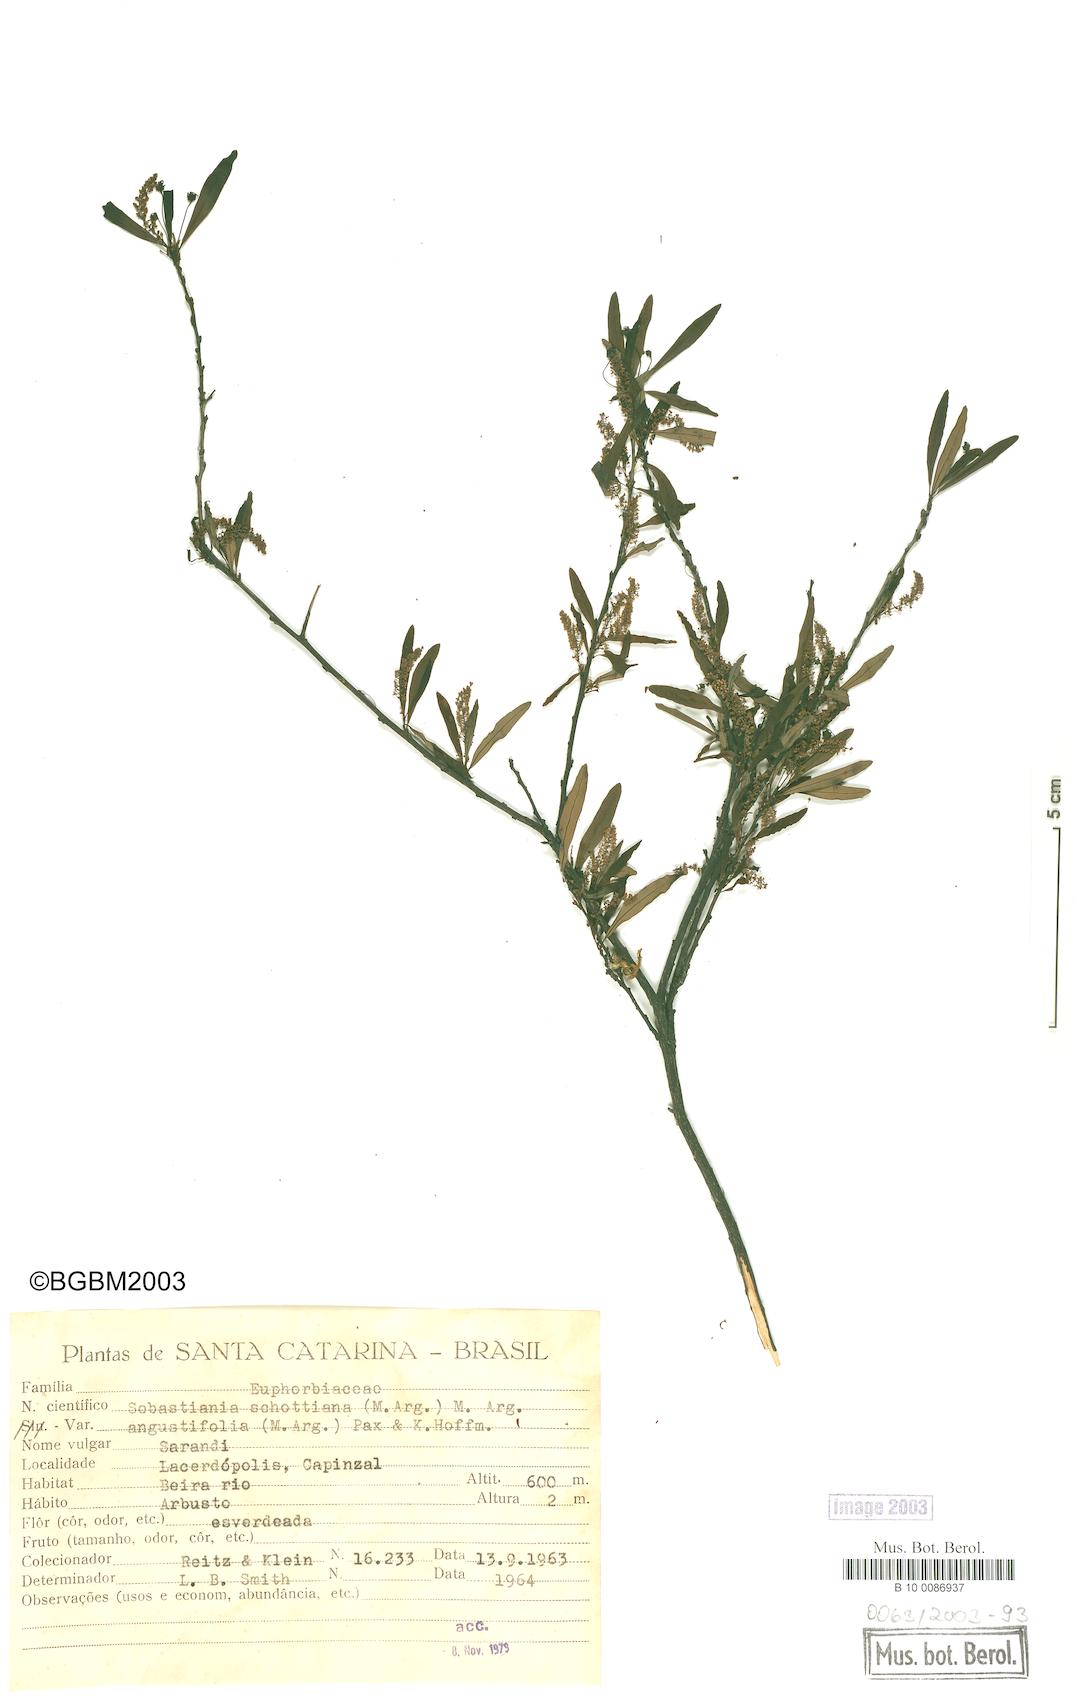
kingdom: Plantae
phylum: Tracheophyta
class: Magnoliopsida
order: Malpighiales
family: Euphorbiaceae
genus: Sebastiania
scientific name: Sebastiania schottiana
